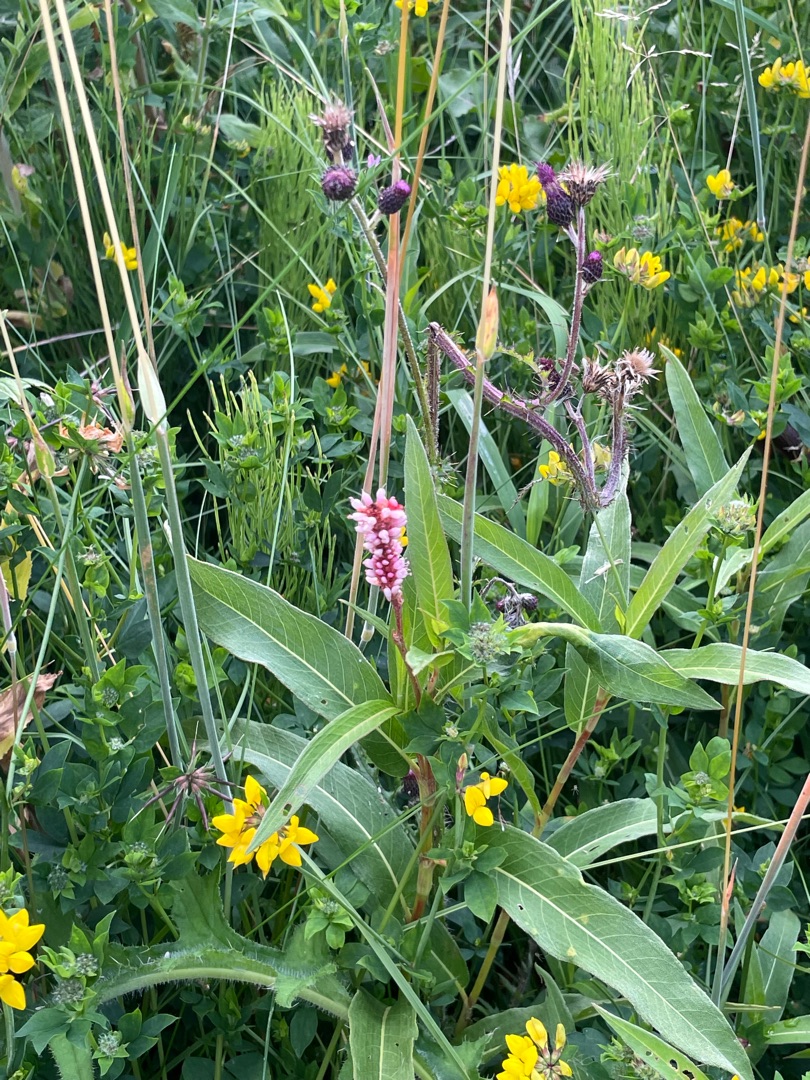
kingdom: Plantae
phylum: Tracheophyta
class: Magnoliopsida
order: Caryophyllales
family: Polygonaceae
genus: Persicaria
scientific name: Persicaria amphibia
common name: Vand-pileurt
